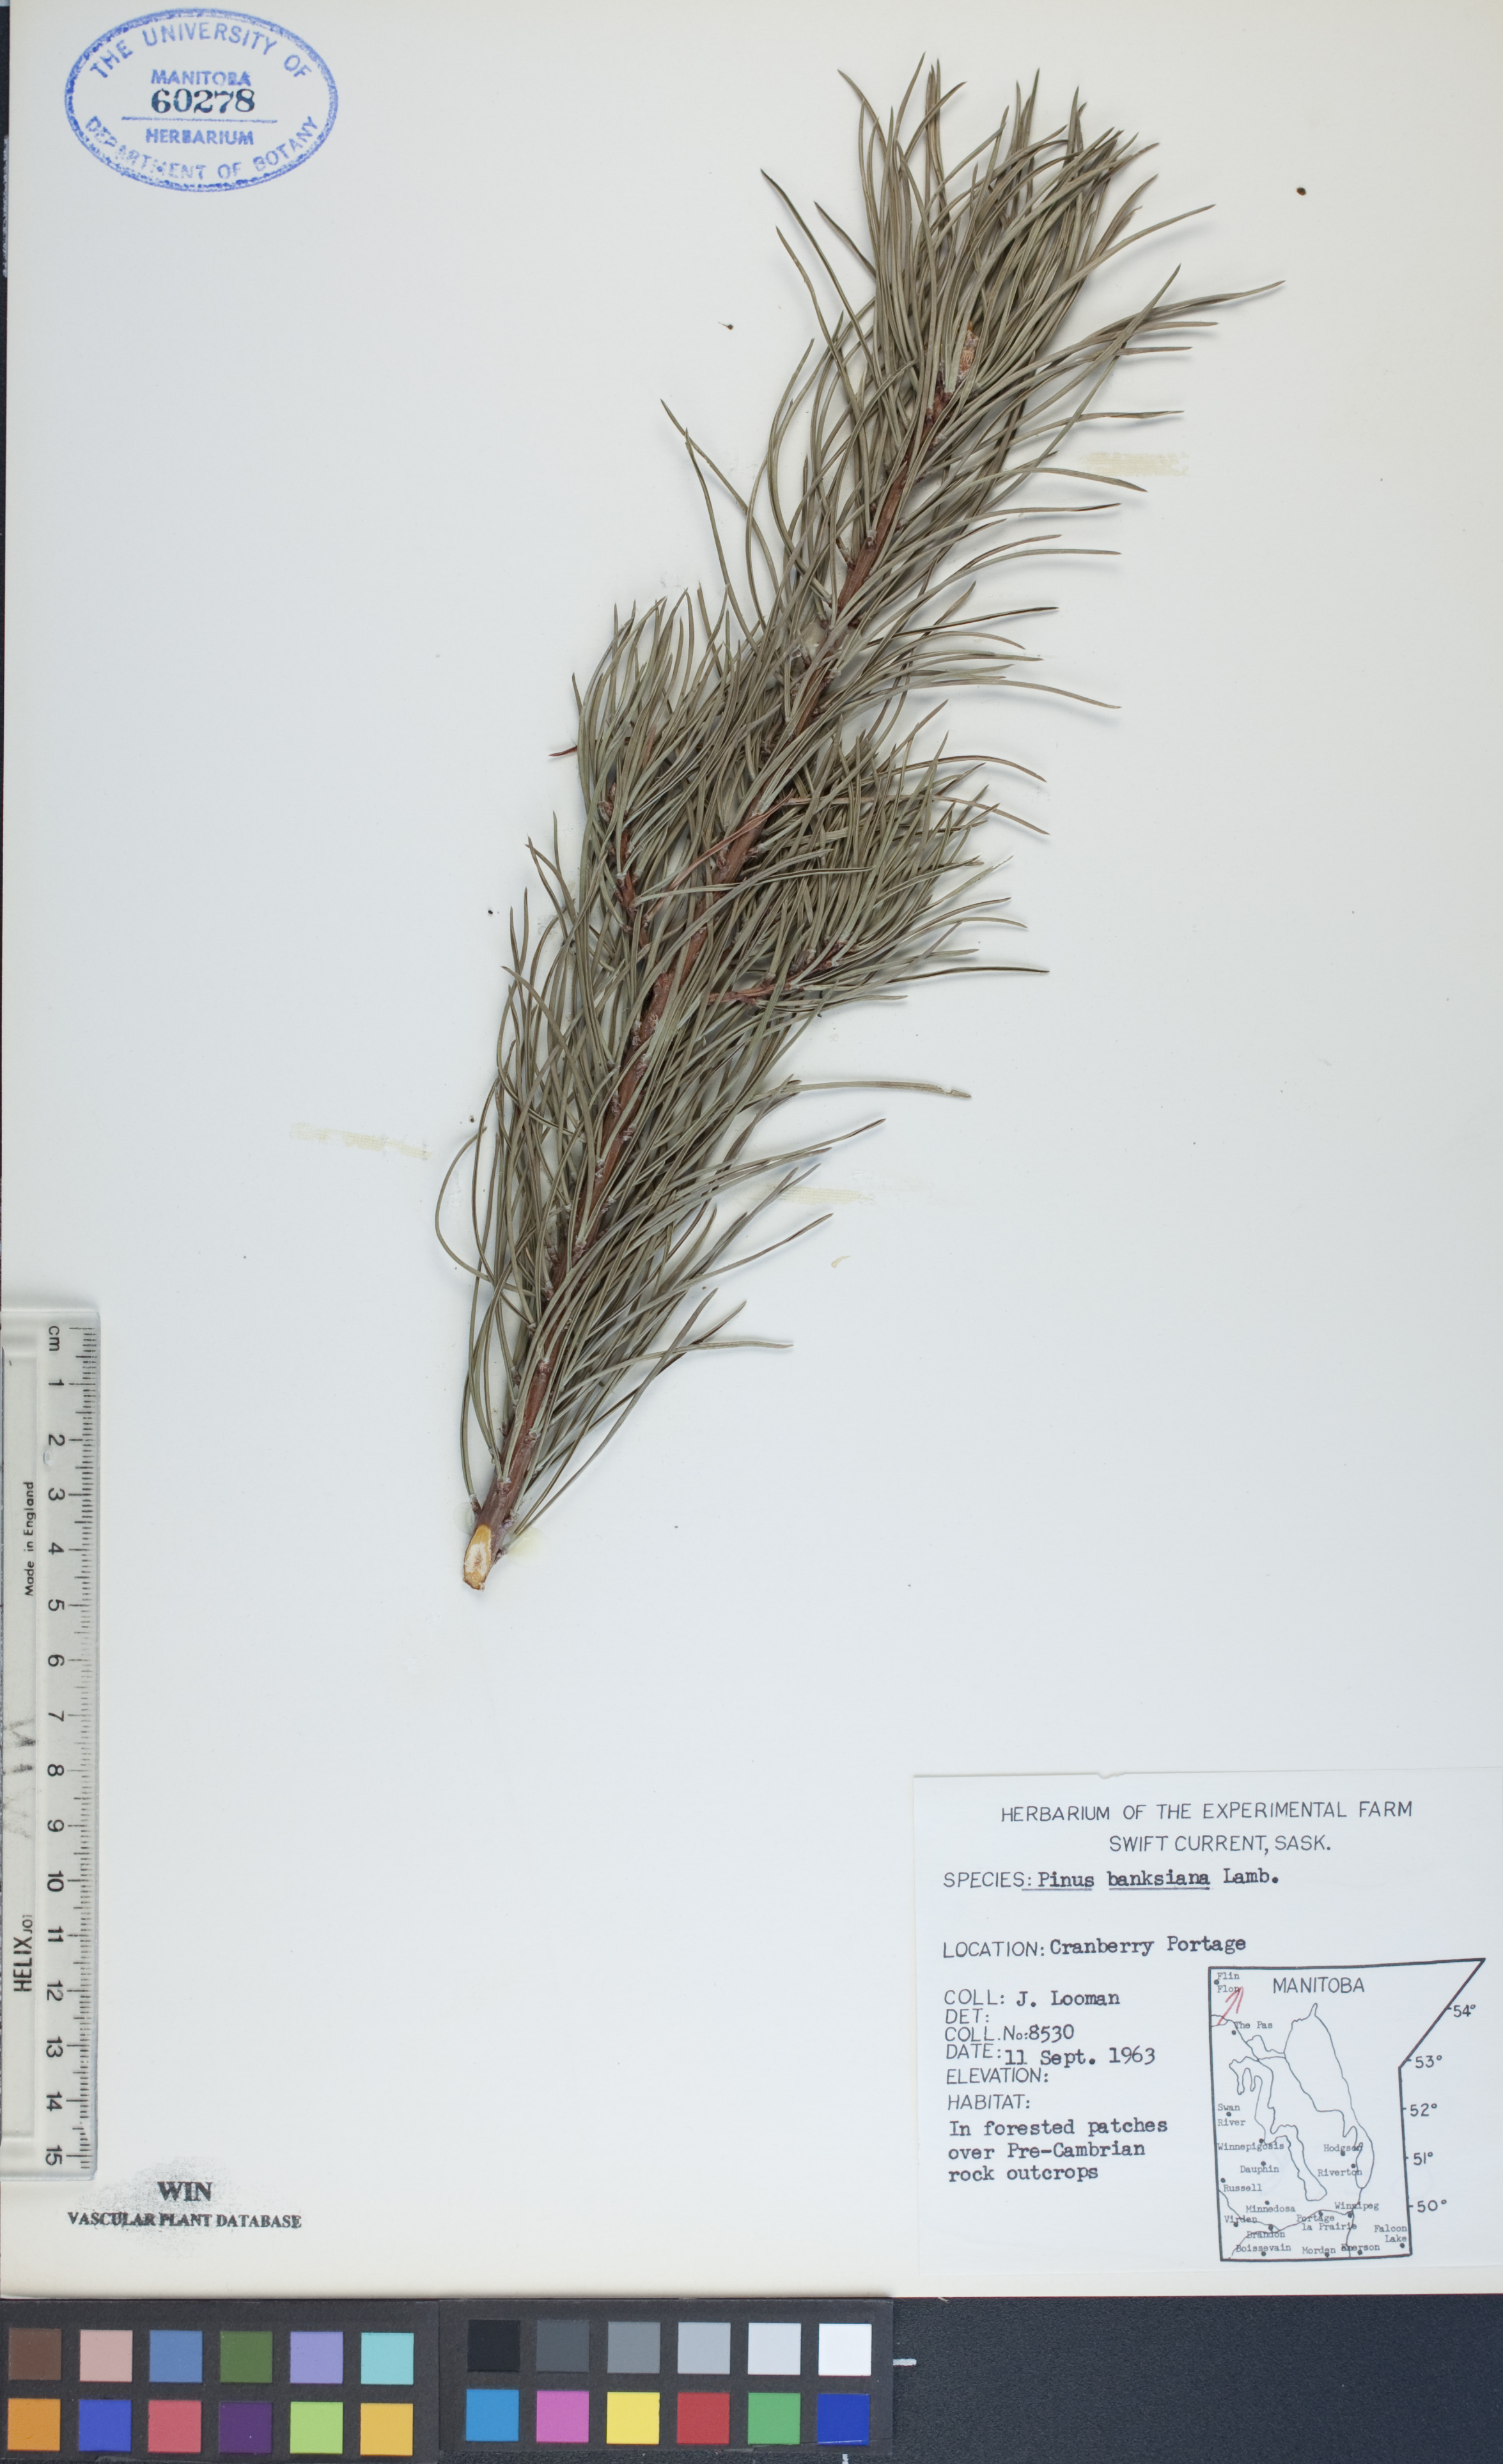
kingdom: Plantae
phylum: Tracheophyta
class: Pinopsida
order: Pinales
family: Pinaceae
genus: Pinus
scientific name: Pinus banksiana
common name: Jack pine
